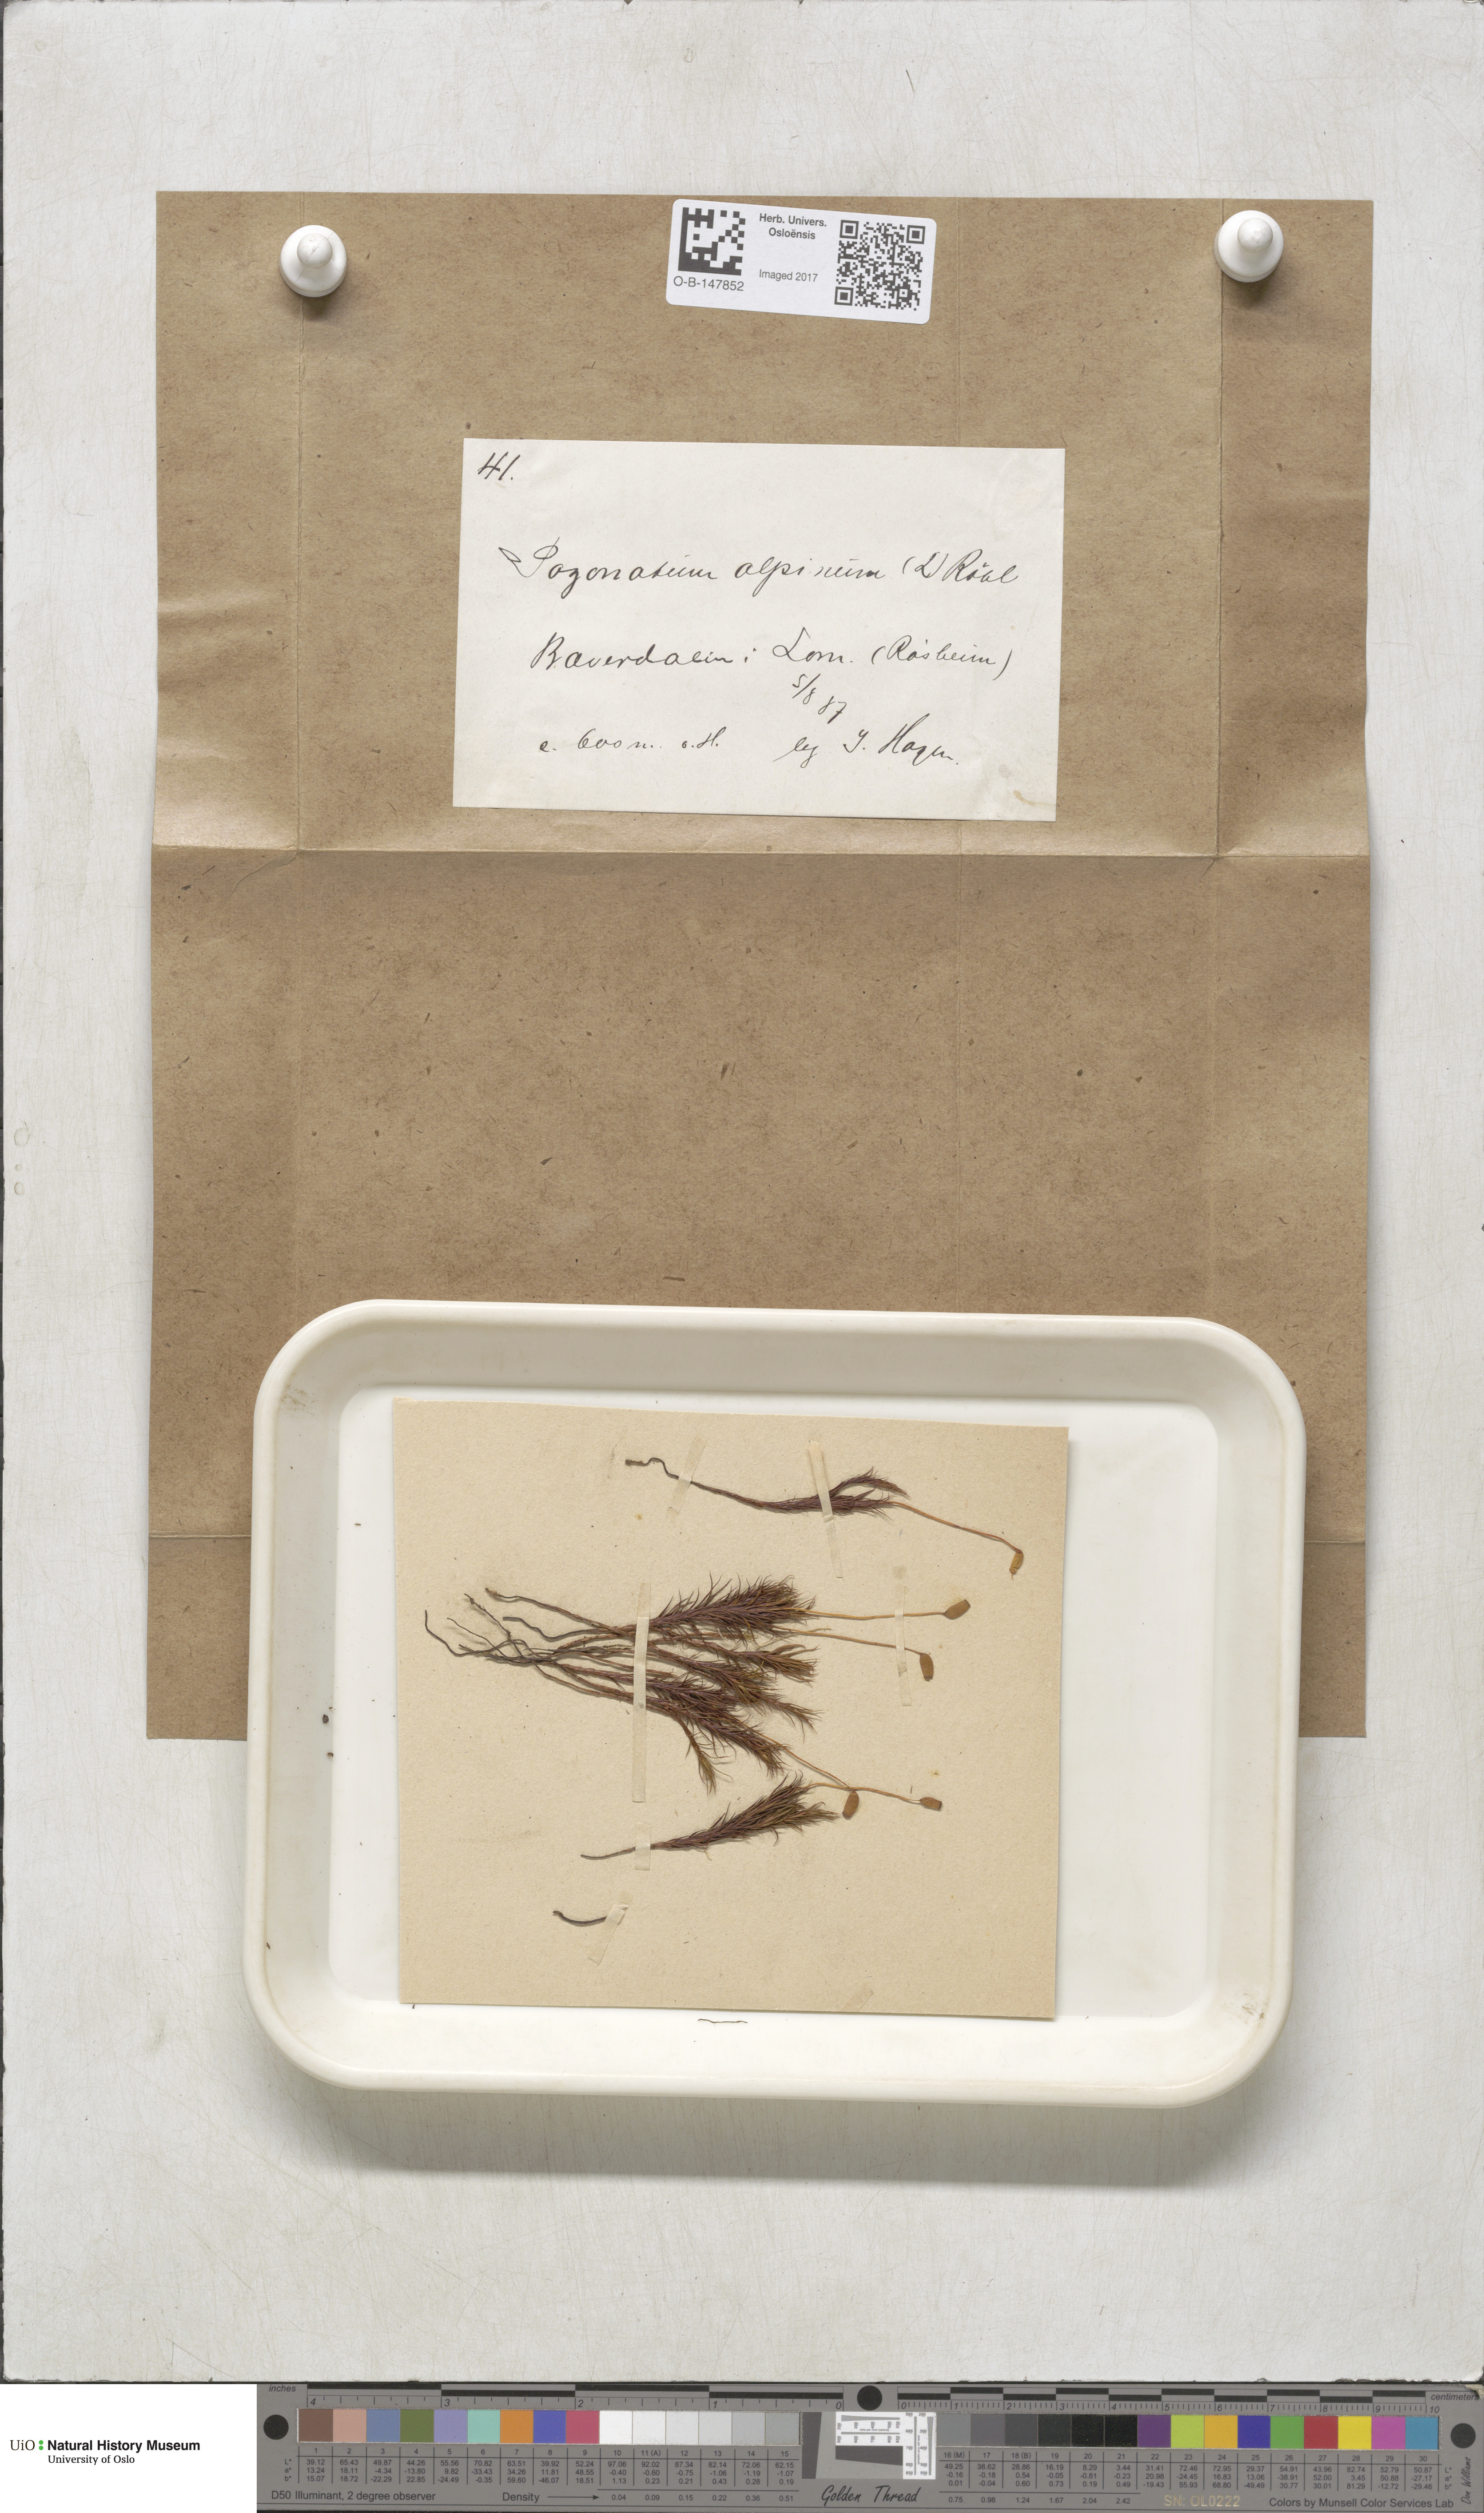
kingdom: Plantae
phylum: Bryophyta
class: Polytrichopsida
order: Polytrichales
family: Polytrichaceae
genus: Polytrichastrum
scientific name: Polytrichastrum alpinum
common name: Alpine haircap
